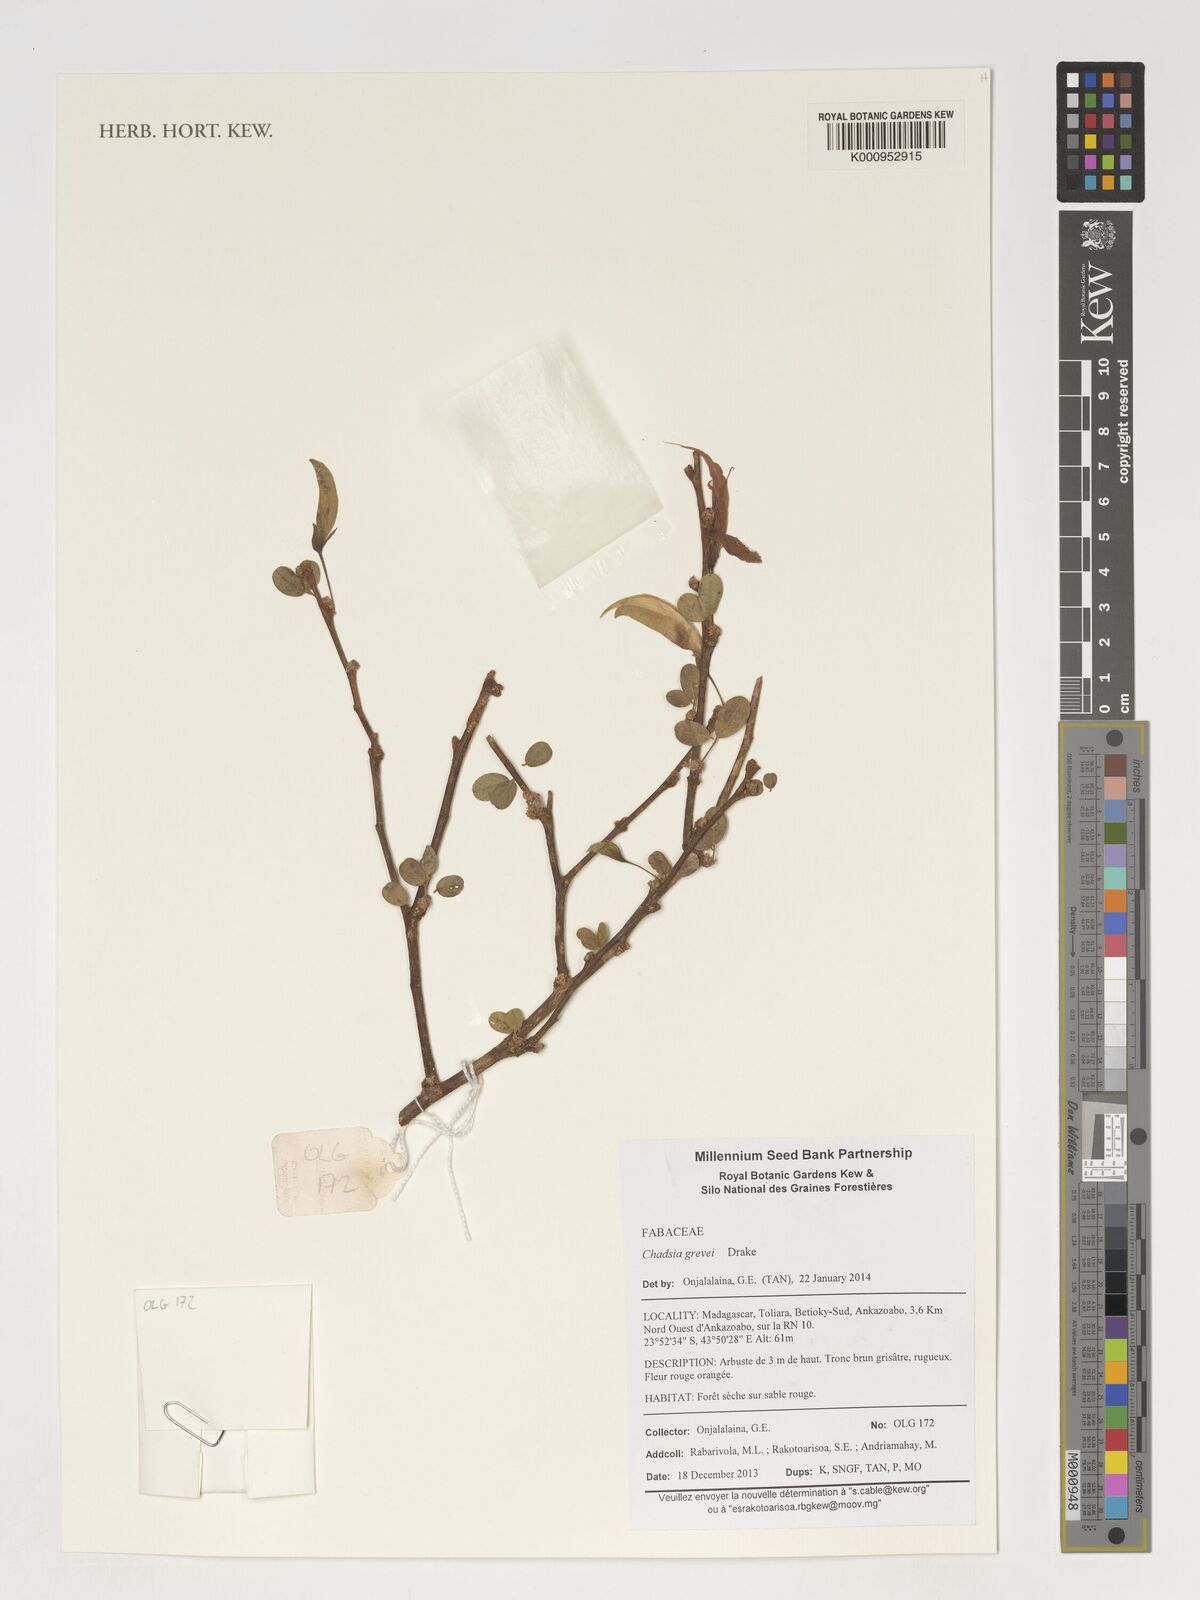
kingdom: Plantae
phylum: Tracheophyta
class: Magnoliopsida
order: Fabales
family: Fabaceae
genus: Chadsia
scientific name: Chadsia grevei
